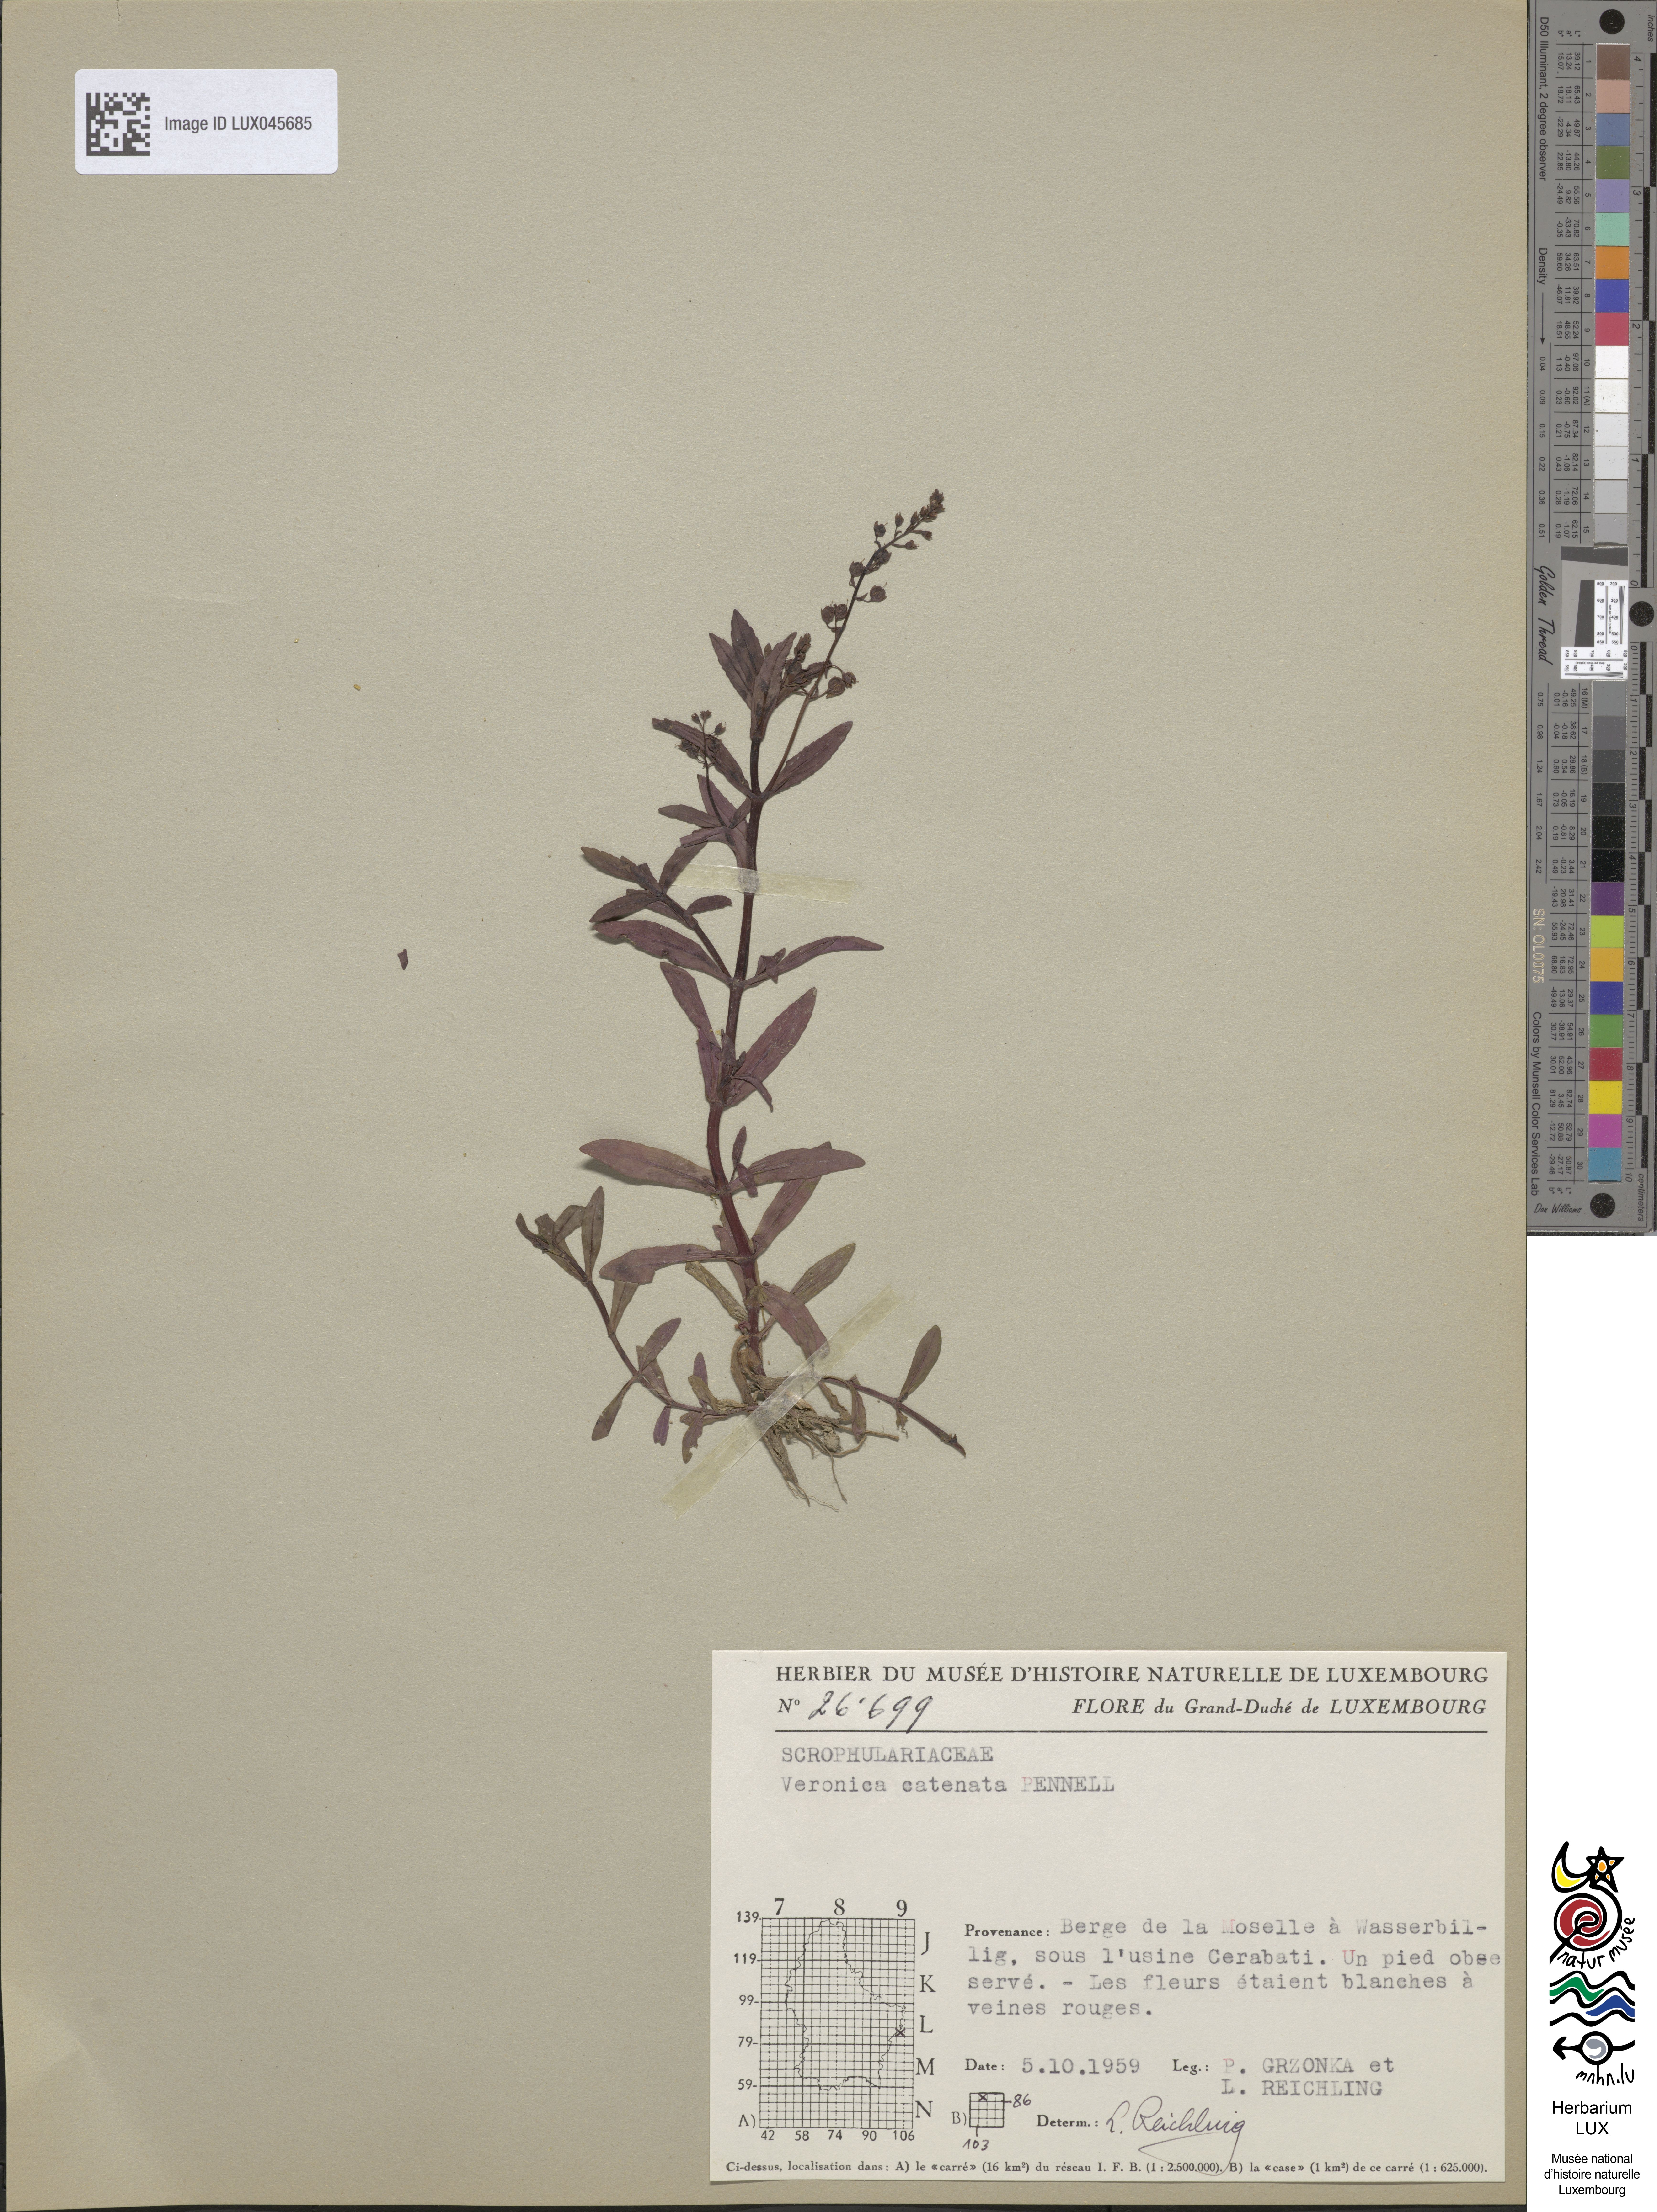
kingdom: Plantae
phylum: Tracheophyta
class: Magnoliopsida
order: Lamiales
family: Plantaginaceae
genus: Veronica
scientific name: Veronica catenata
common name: Pink water-speedwell
